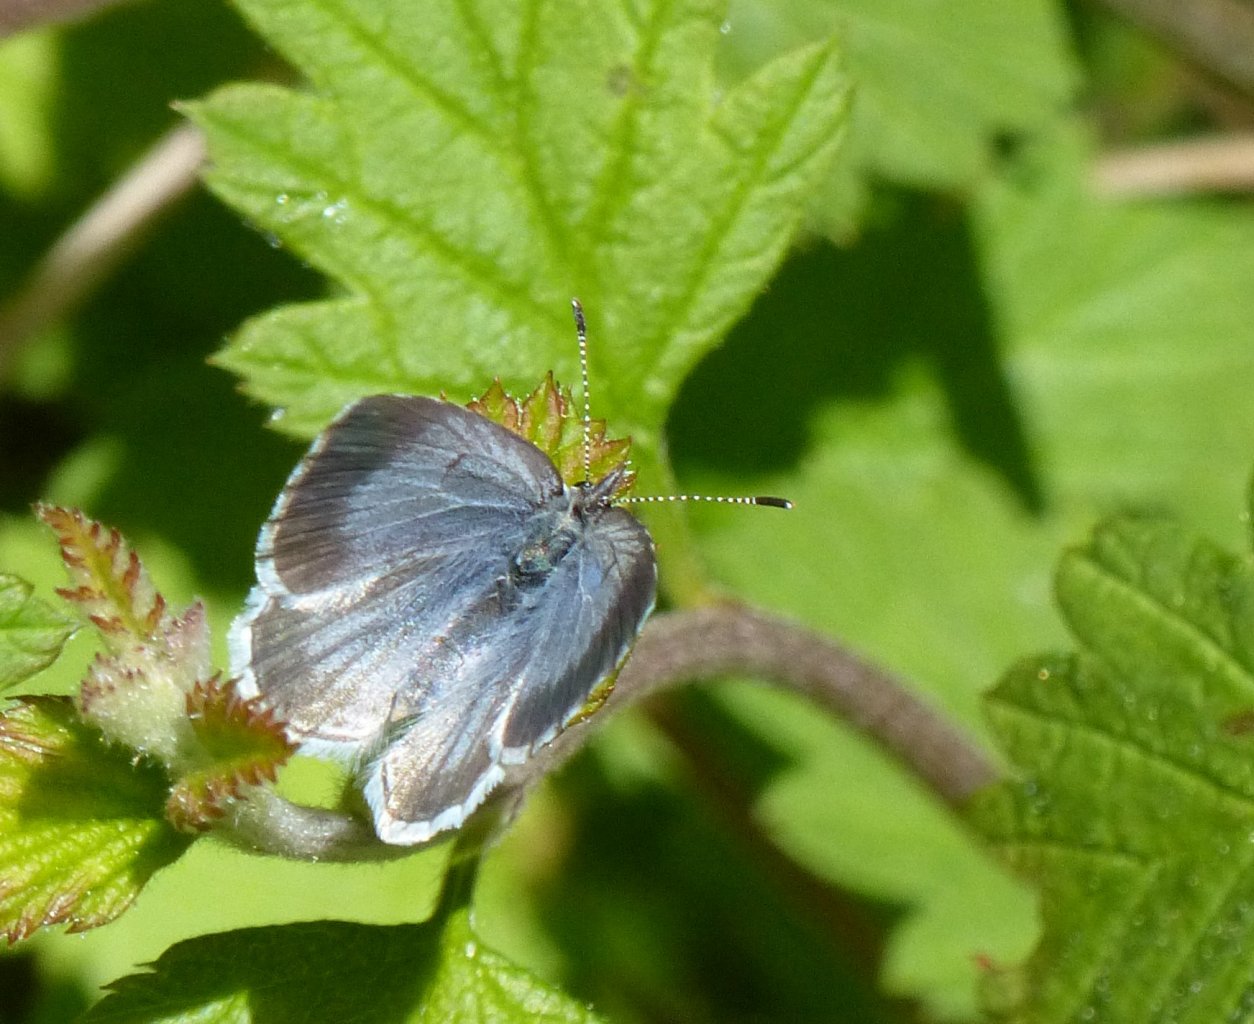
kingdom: Animalia
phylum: Arthropoda
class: Insecta
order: Lepidoptera
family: Lycaenidae
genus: Celastrina
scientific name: Celastrina ladon
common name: Echo Azure
